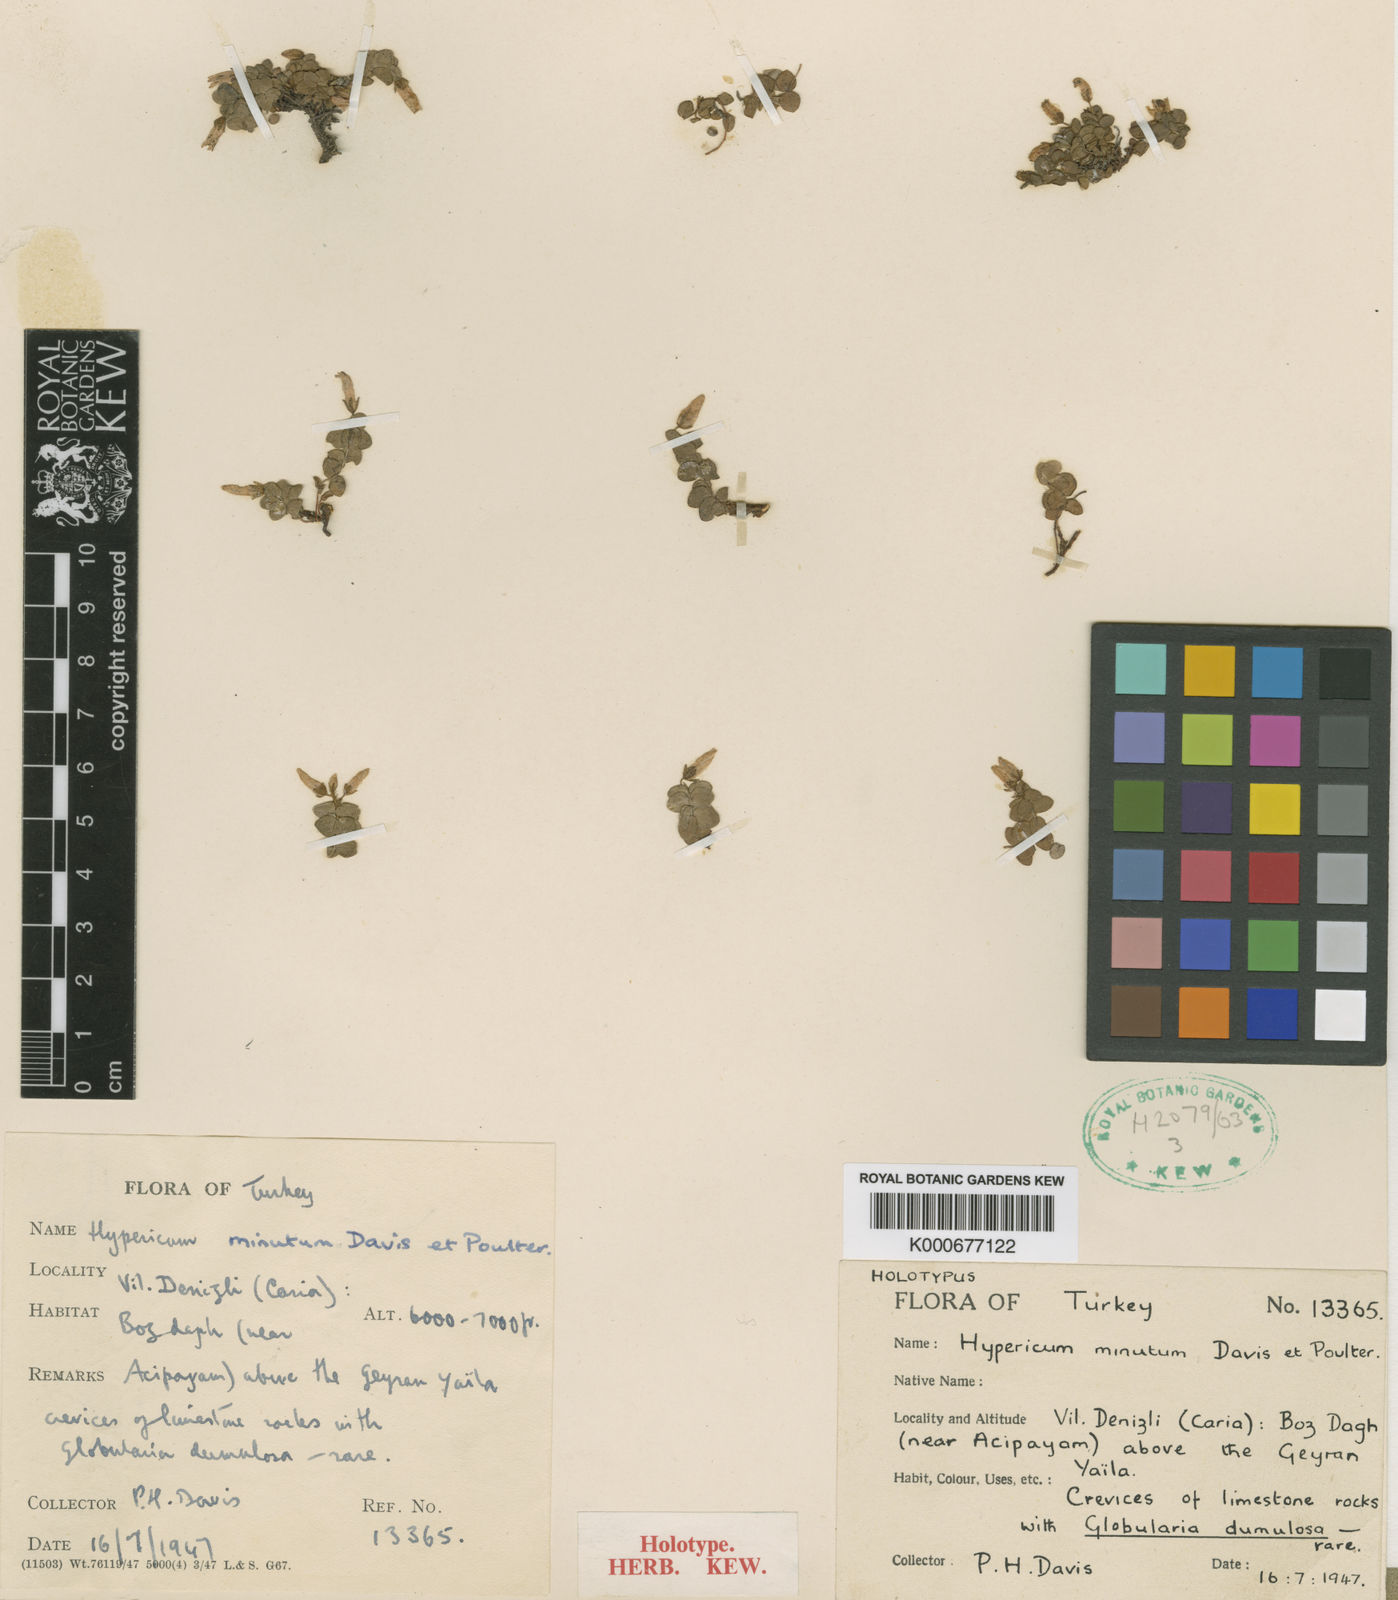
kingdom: Plantae
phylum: Tracheophyta
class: Magnoliopsida
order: Malpighiales
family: Hypericaceae
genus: Hypericum
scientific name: Hypericum minutum
